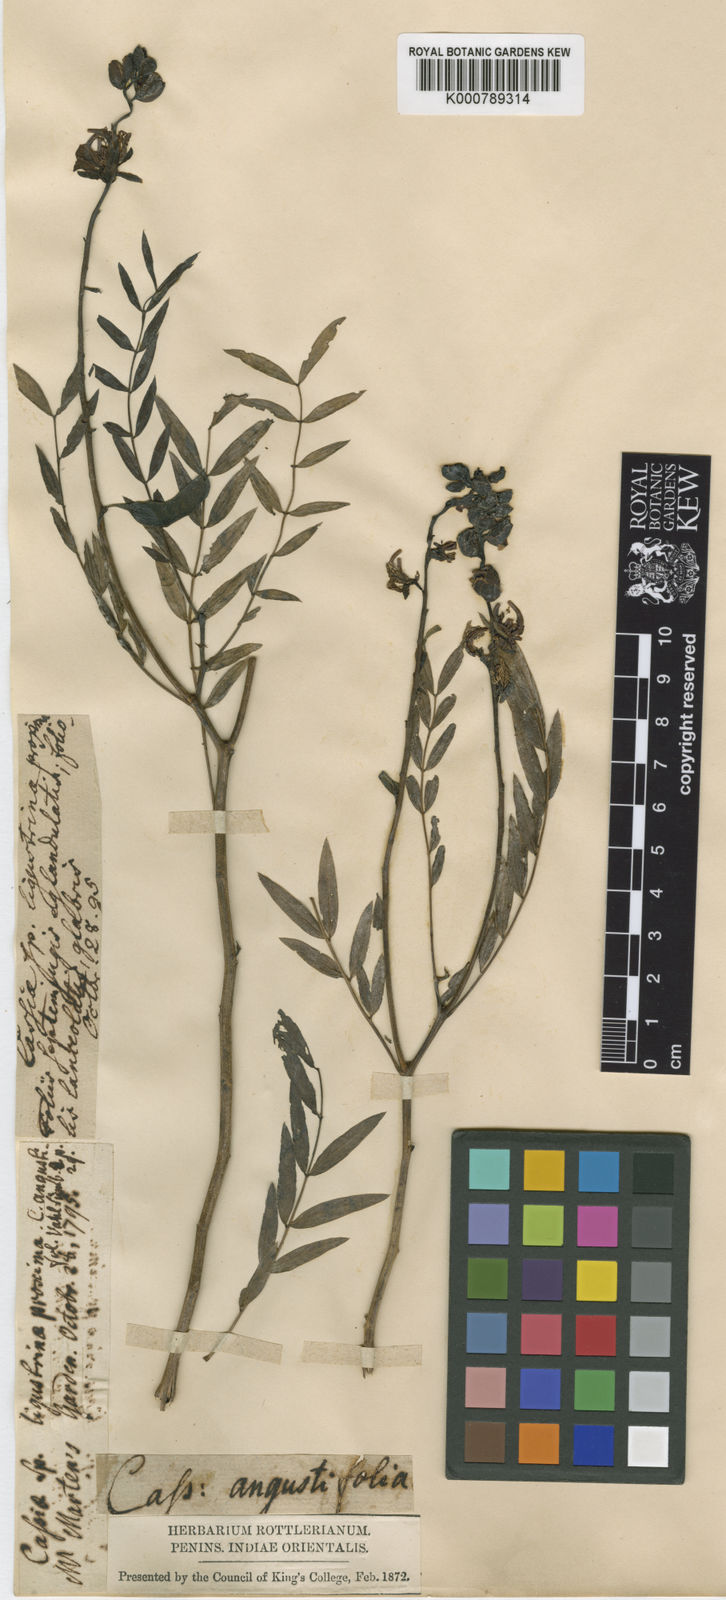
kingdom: Plantae
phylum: Tracheophyta
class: Magnoliopsida
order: Fabales
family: Fabaceae
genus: Senna
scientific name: Senna alexandrina
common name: True senna
